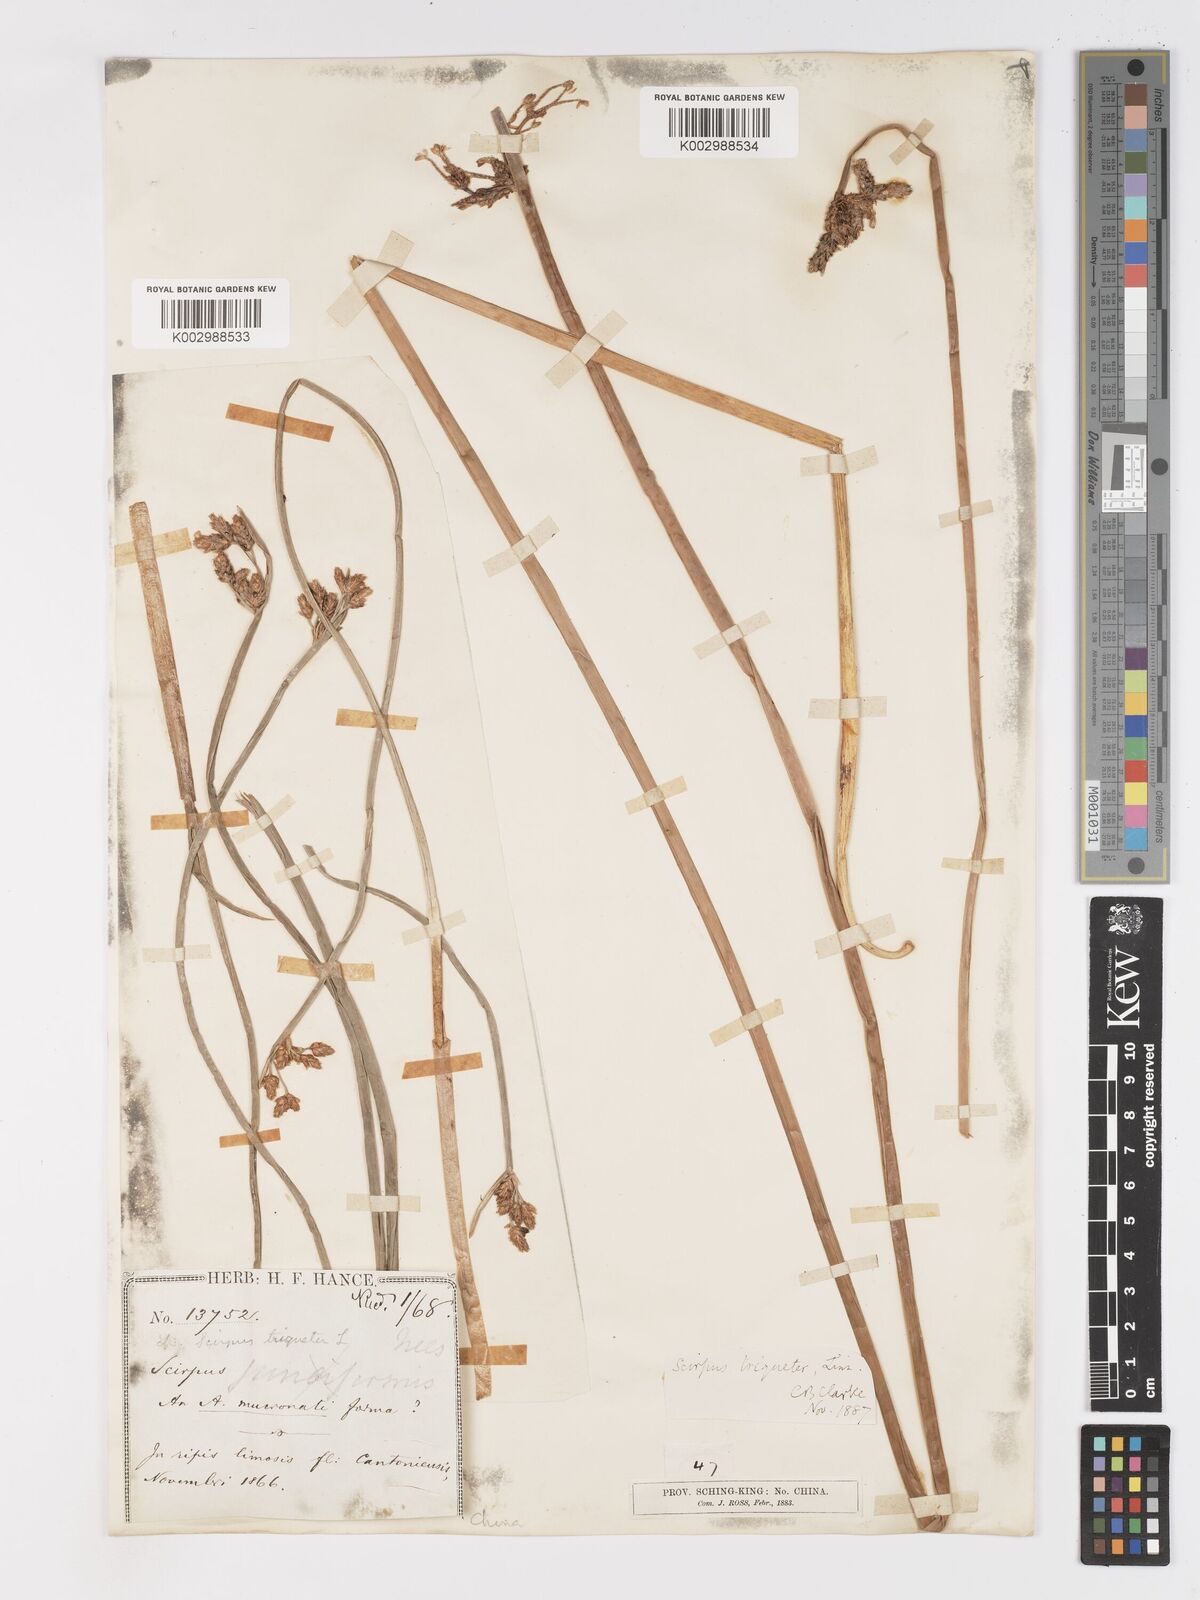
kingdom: Plantae
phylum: Tracheophyta
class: Liliopsida
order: Poales
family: Cyperaceae
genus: Schoenoplectus
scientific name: Schoenoplectus triqueter
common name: Triangular club-rush
